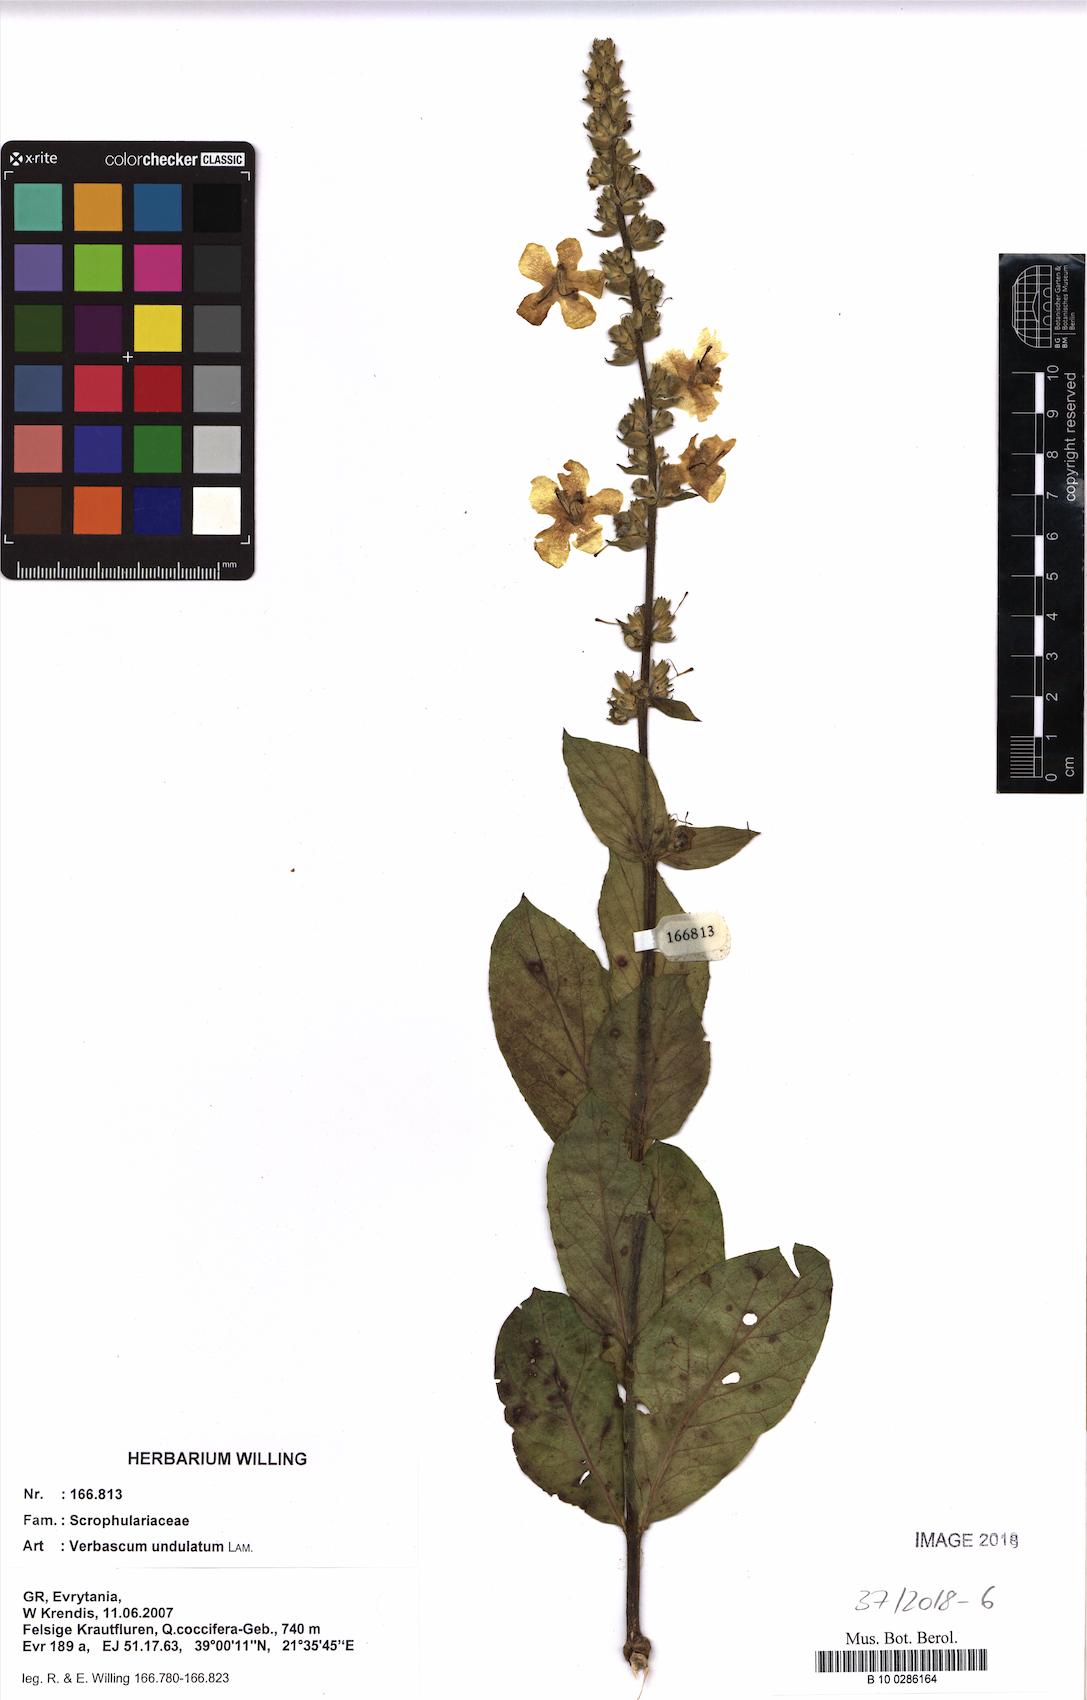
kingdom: Plantae
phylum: Tracheophyta
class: Magnoliopsida
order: Lamiales
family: Scrophulariaceae
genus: Verbascum
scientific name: Verbascum undulatum
